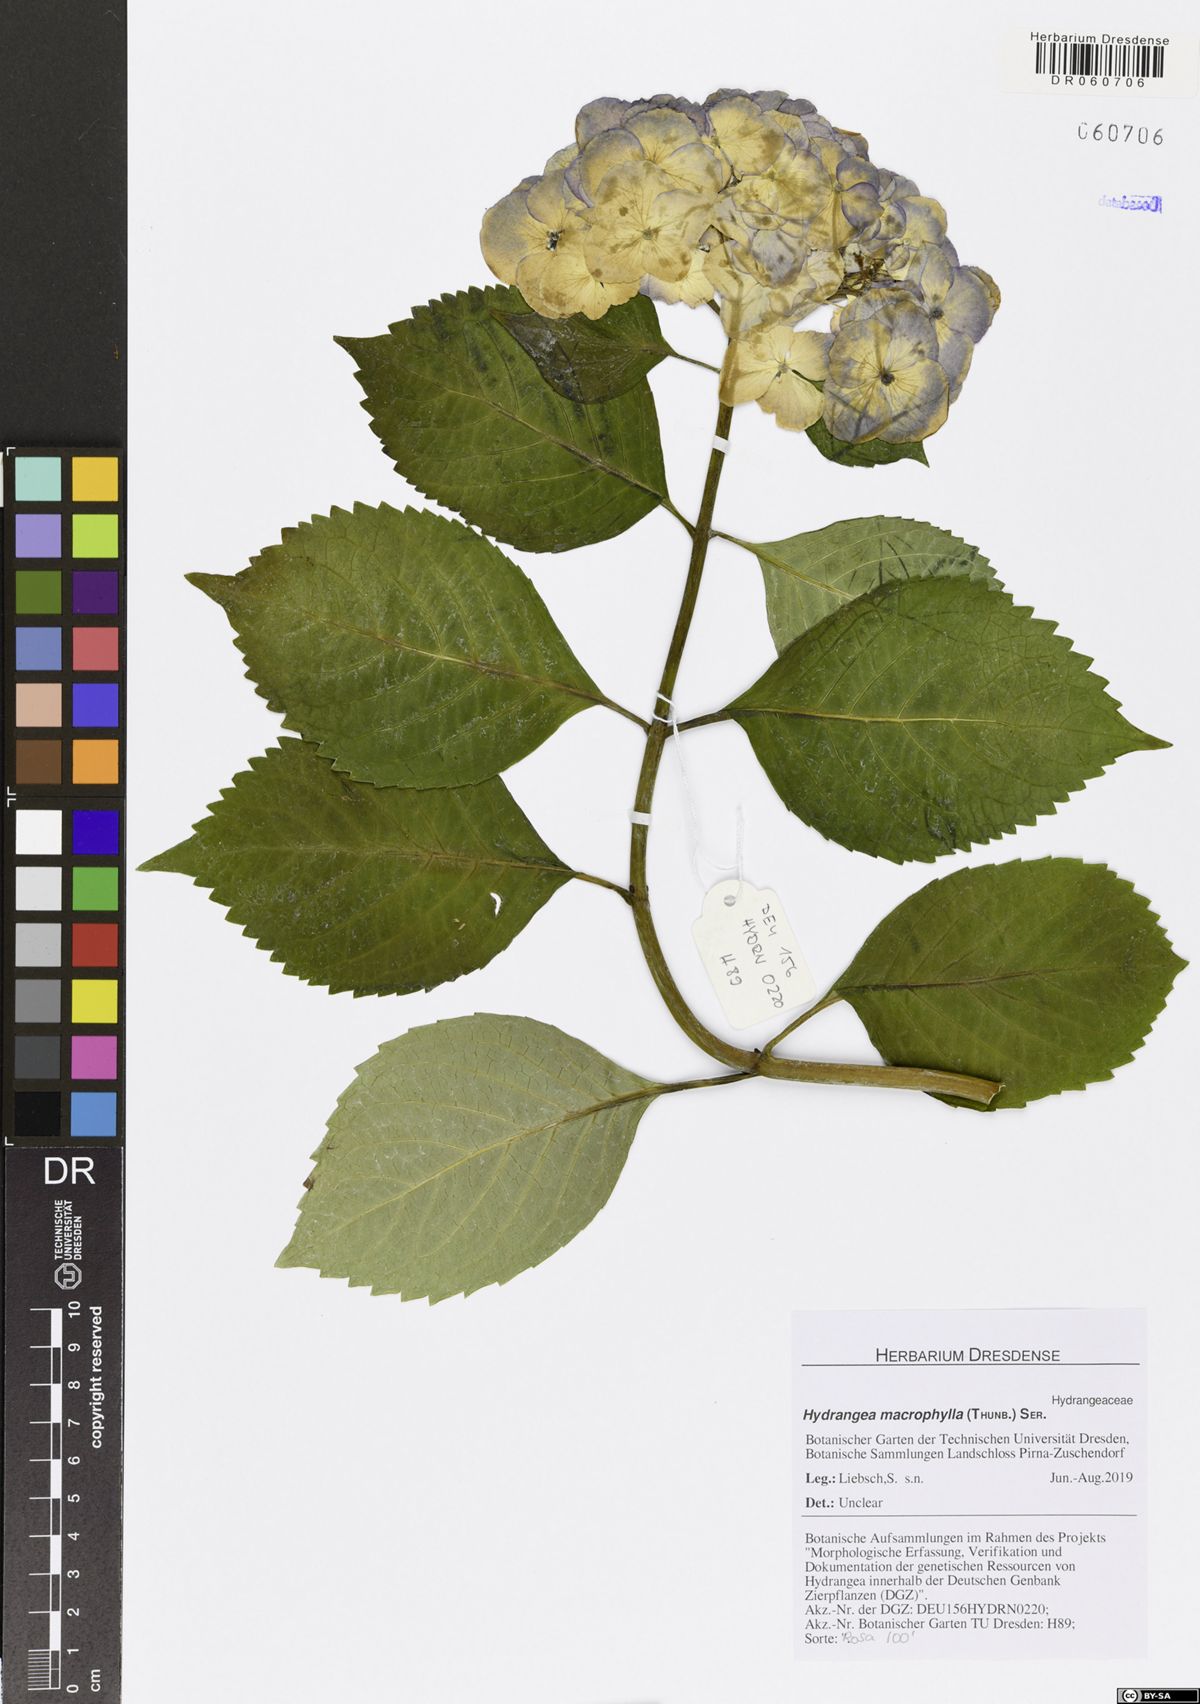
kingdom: Plantae
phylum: Tracheophyta
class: Magnoliopsida
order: Cornales
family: Hydrangeaceae
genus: Hydrangea
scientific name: Hydrangea macrophylla
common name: Hydrangea
